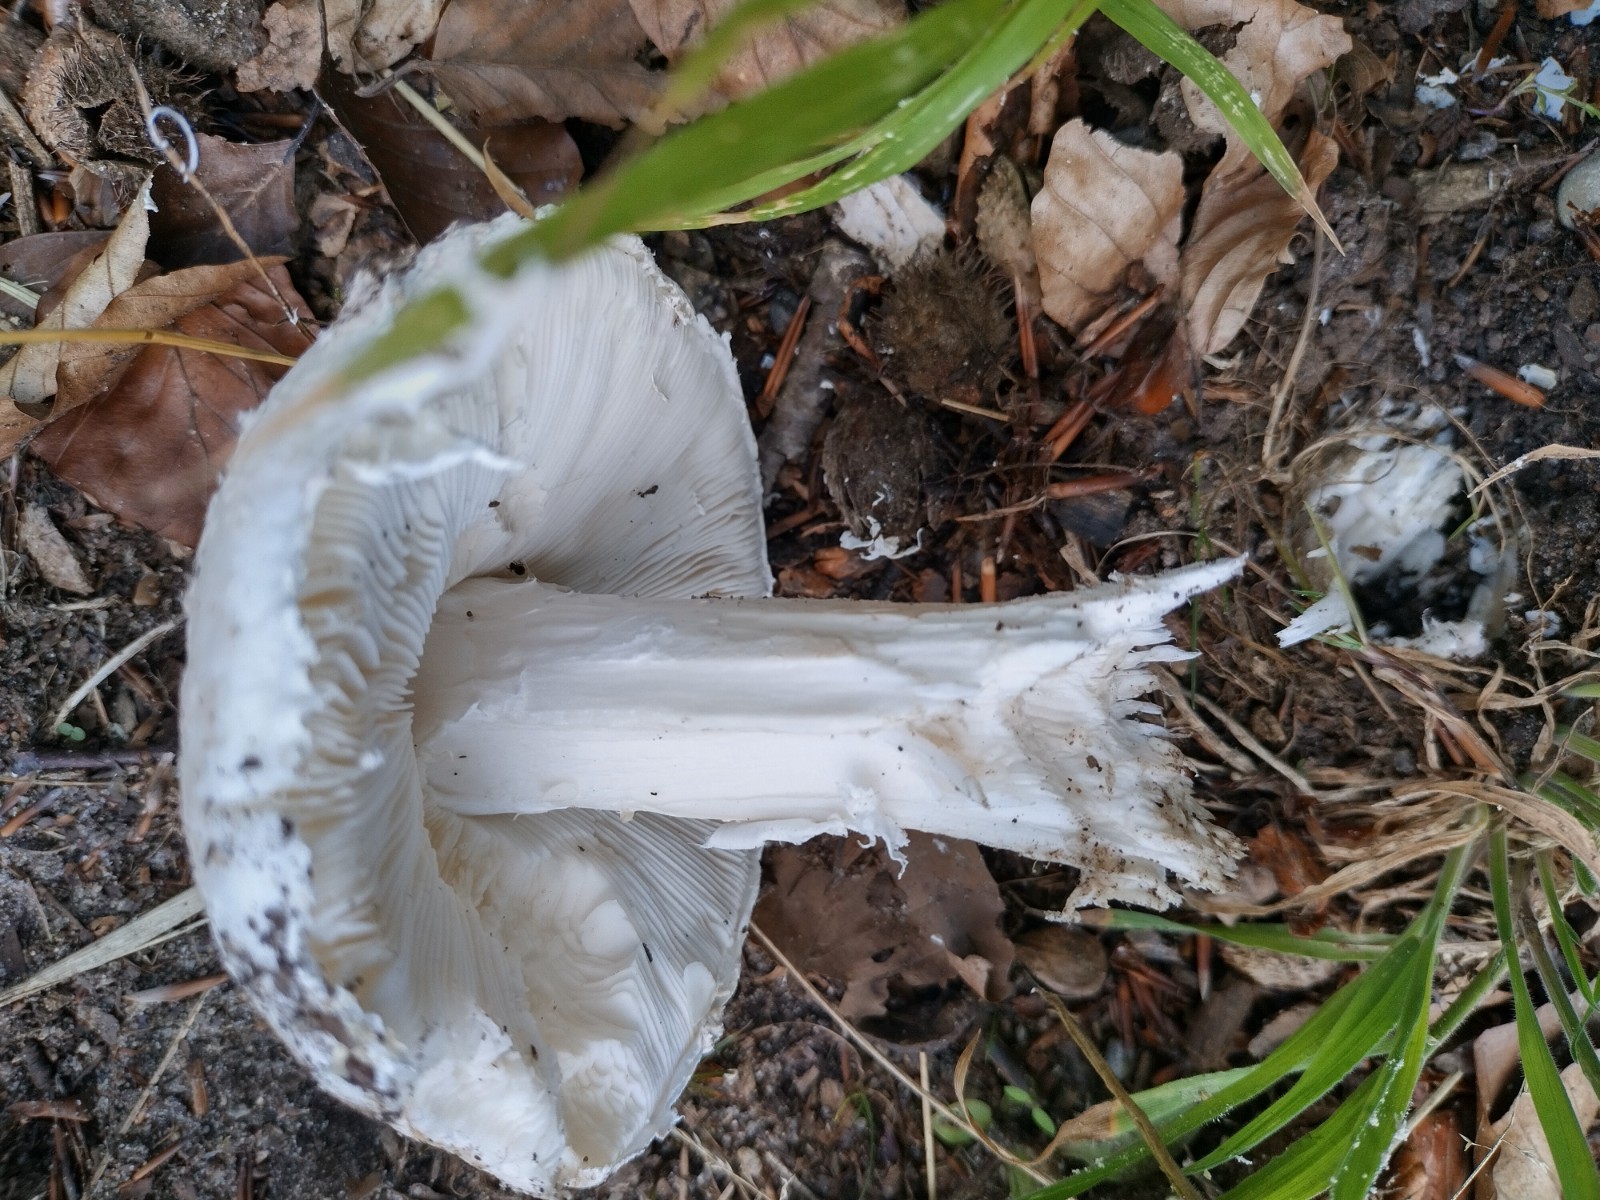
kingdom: Fungi
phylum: Basidiomycota
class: Agaricomycetes
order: Agaricales
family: Amanitaceae
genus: Amanita
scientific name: Amanita
